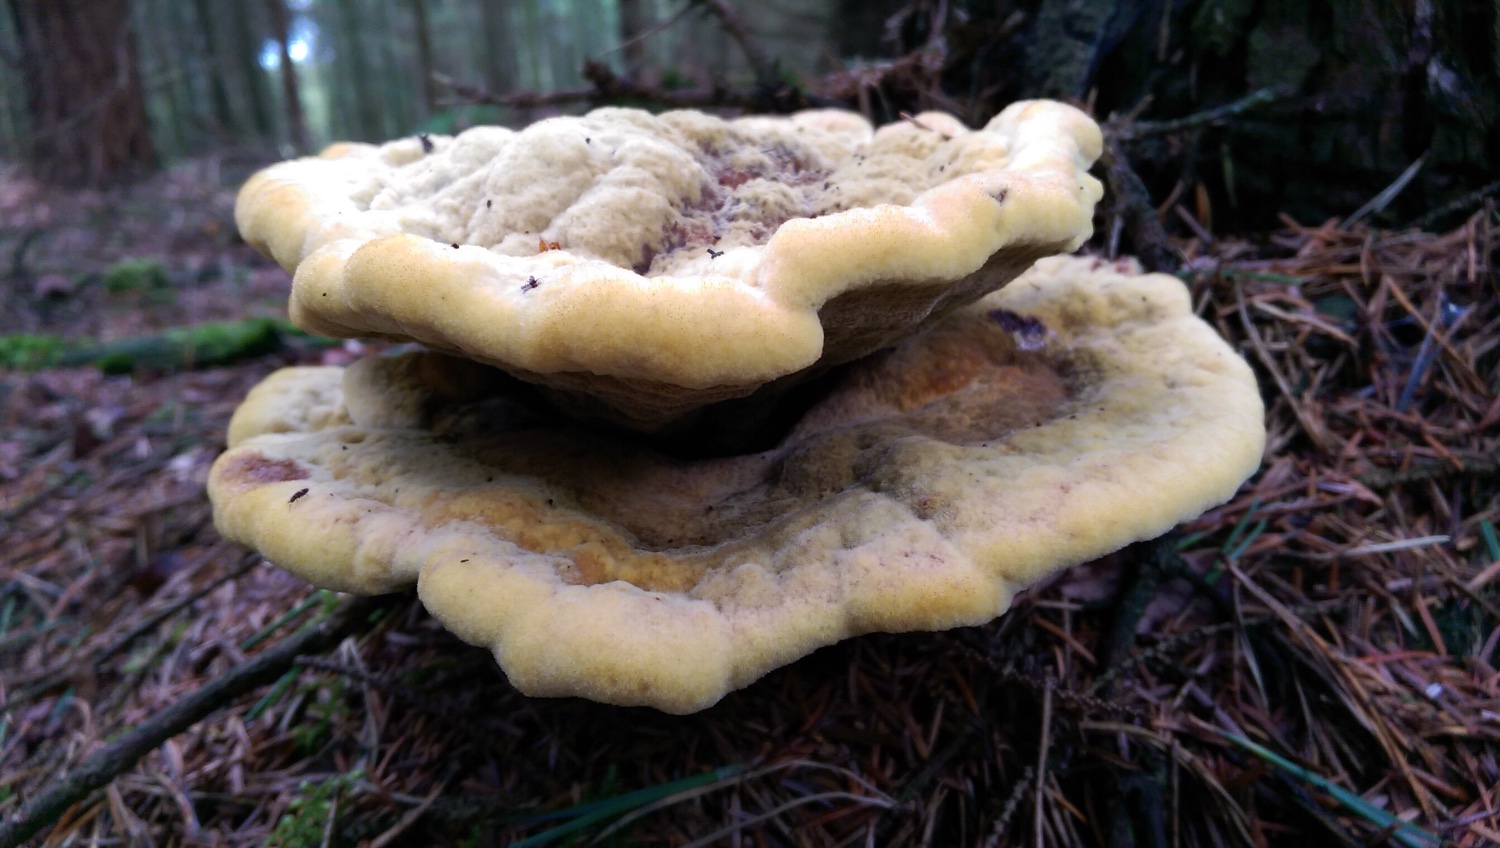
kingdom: Fungi
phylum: Basidiomycota
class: Agaricomycetes
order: Polyporales
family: Laetiporaceae
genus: Phaeolus
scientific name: Phaeolus schweinitzii
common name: brunporesvamp
